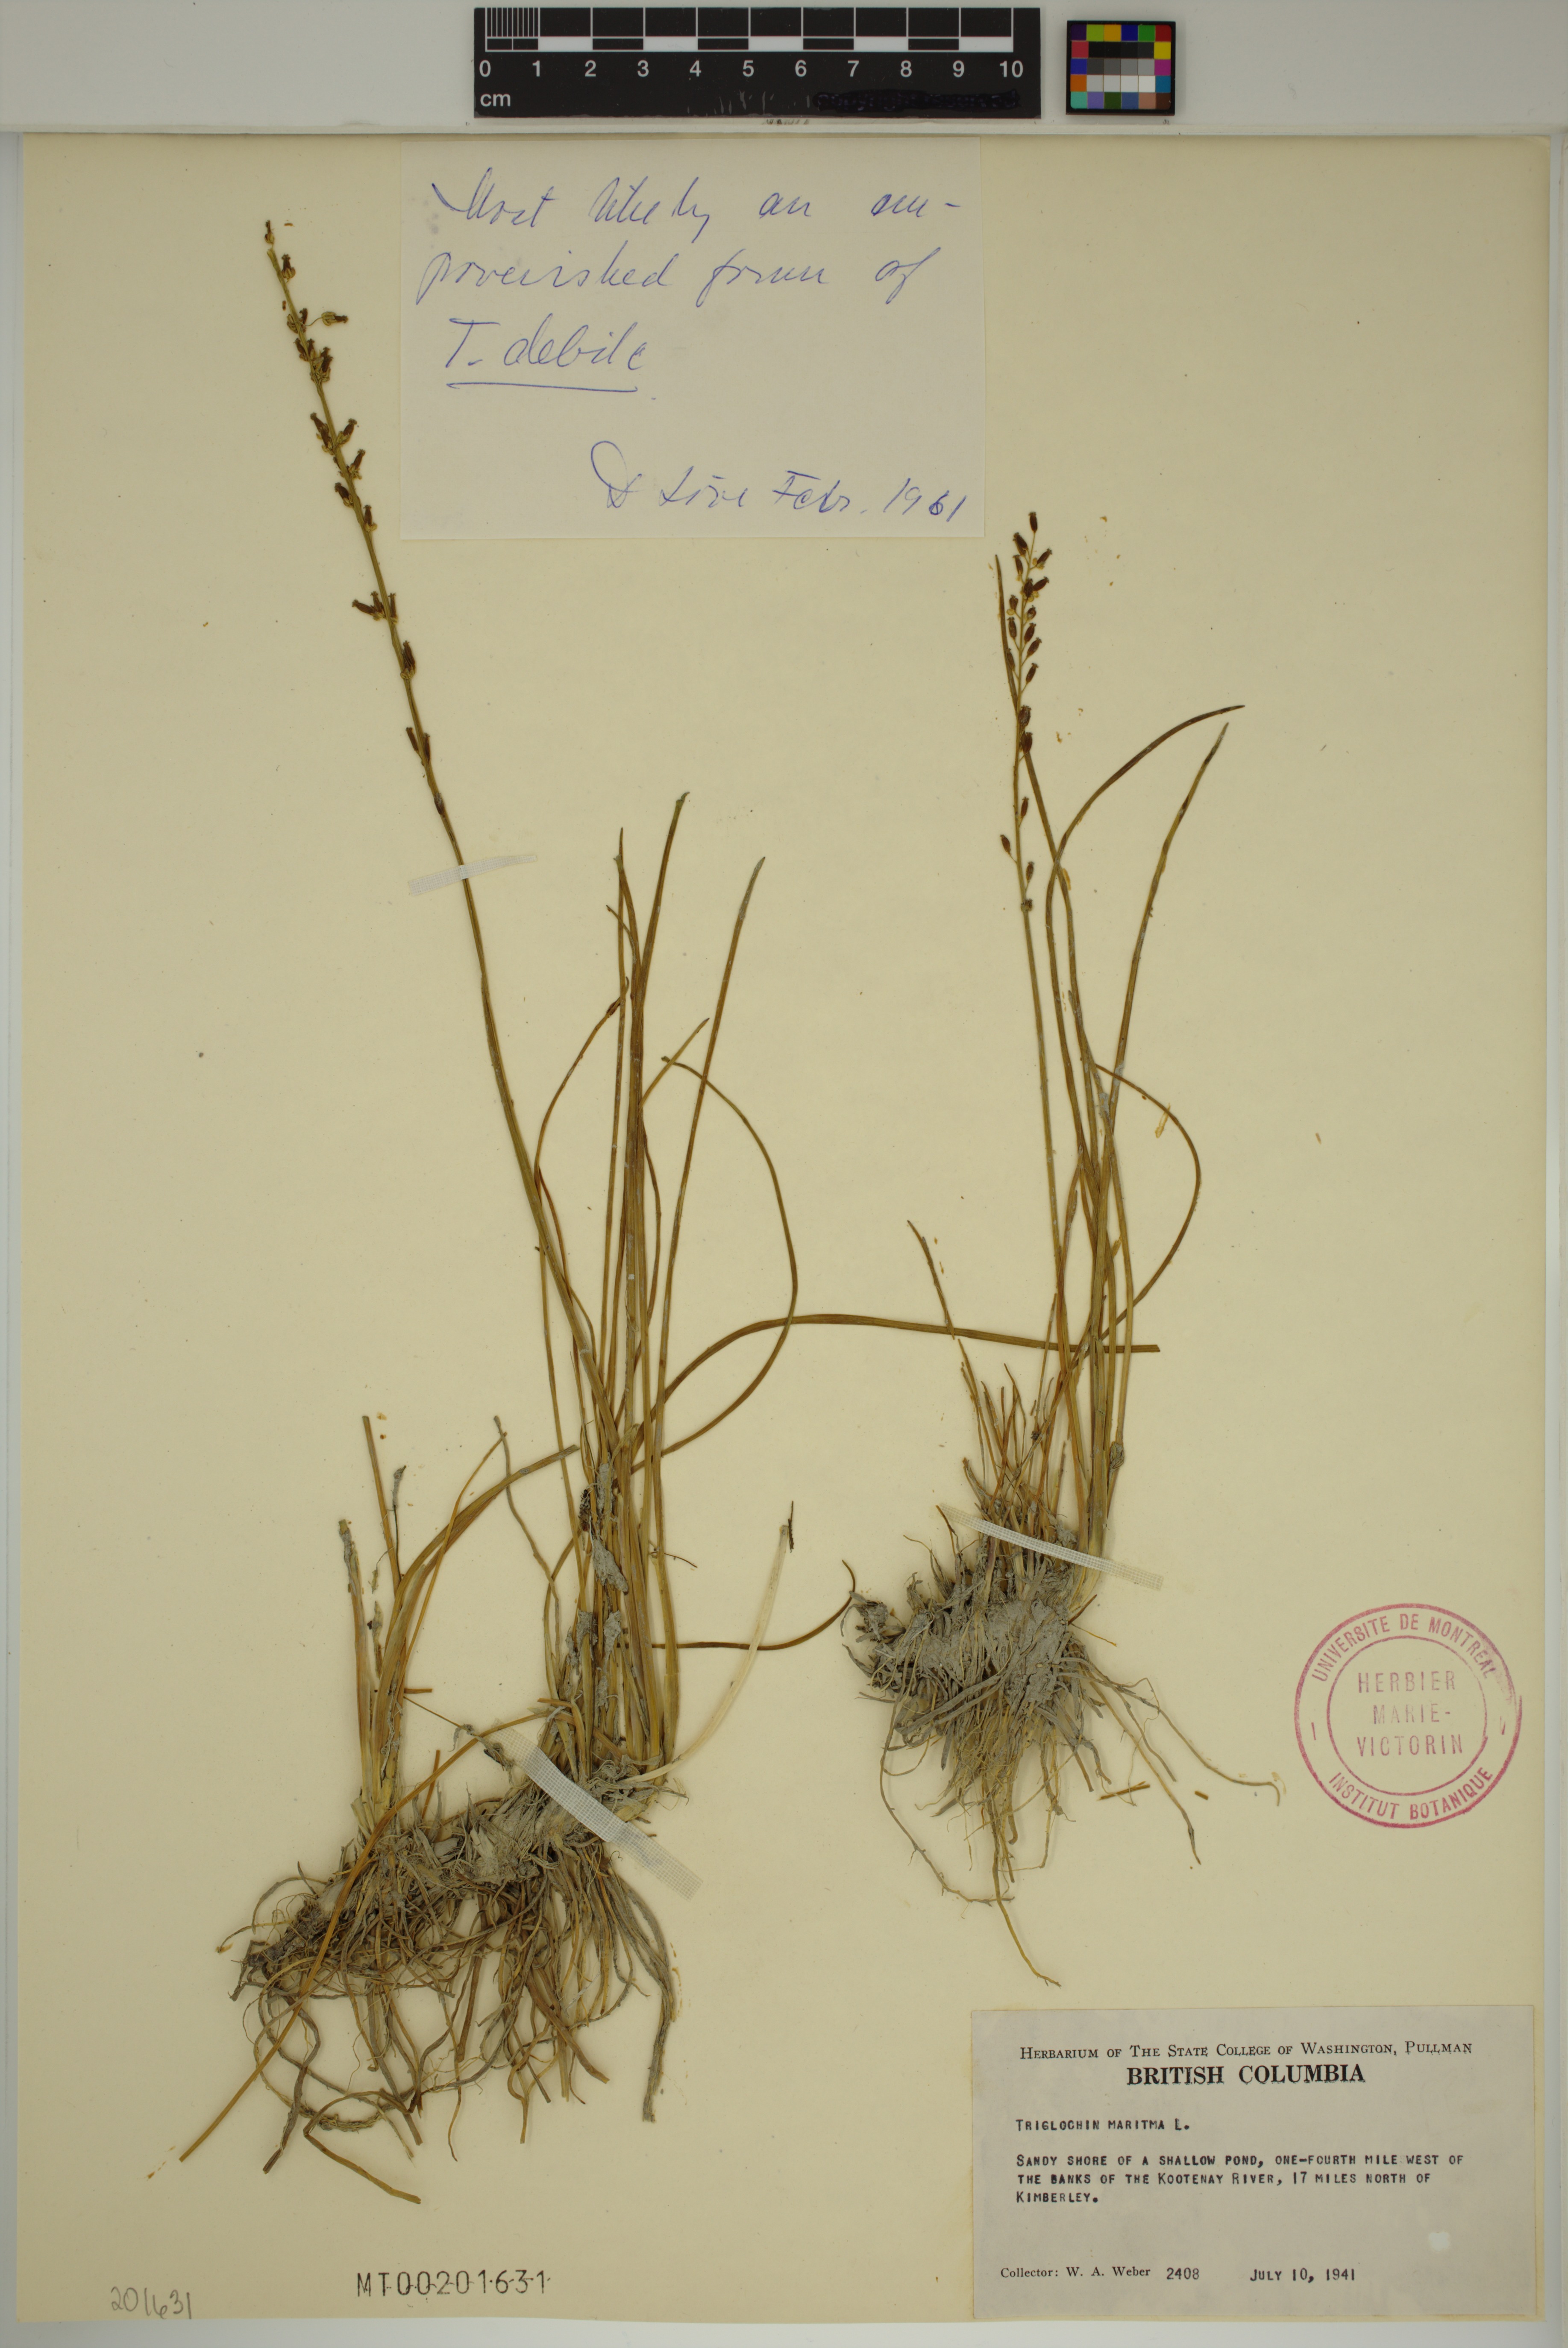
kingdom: Plantae
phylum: Tracheophyta
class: Liliopsida
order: Alismatales
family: Juncaginaceae
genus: Triglochin
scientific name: Triglochin maritima
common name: Sea arrowgrass
